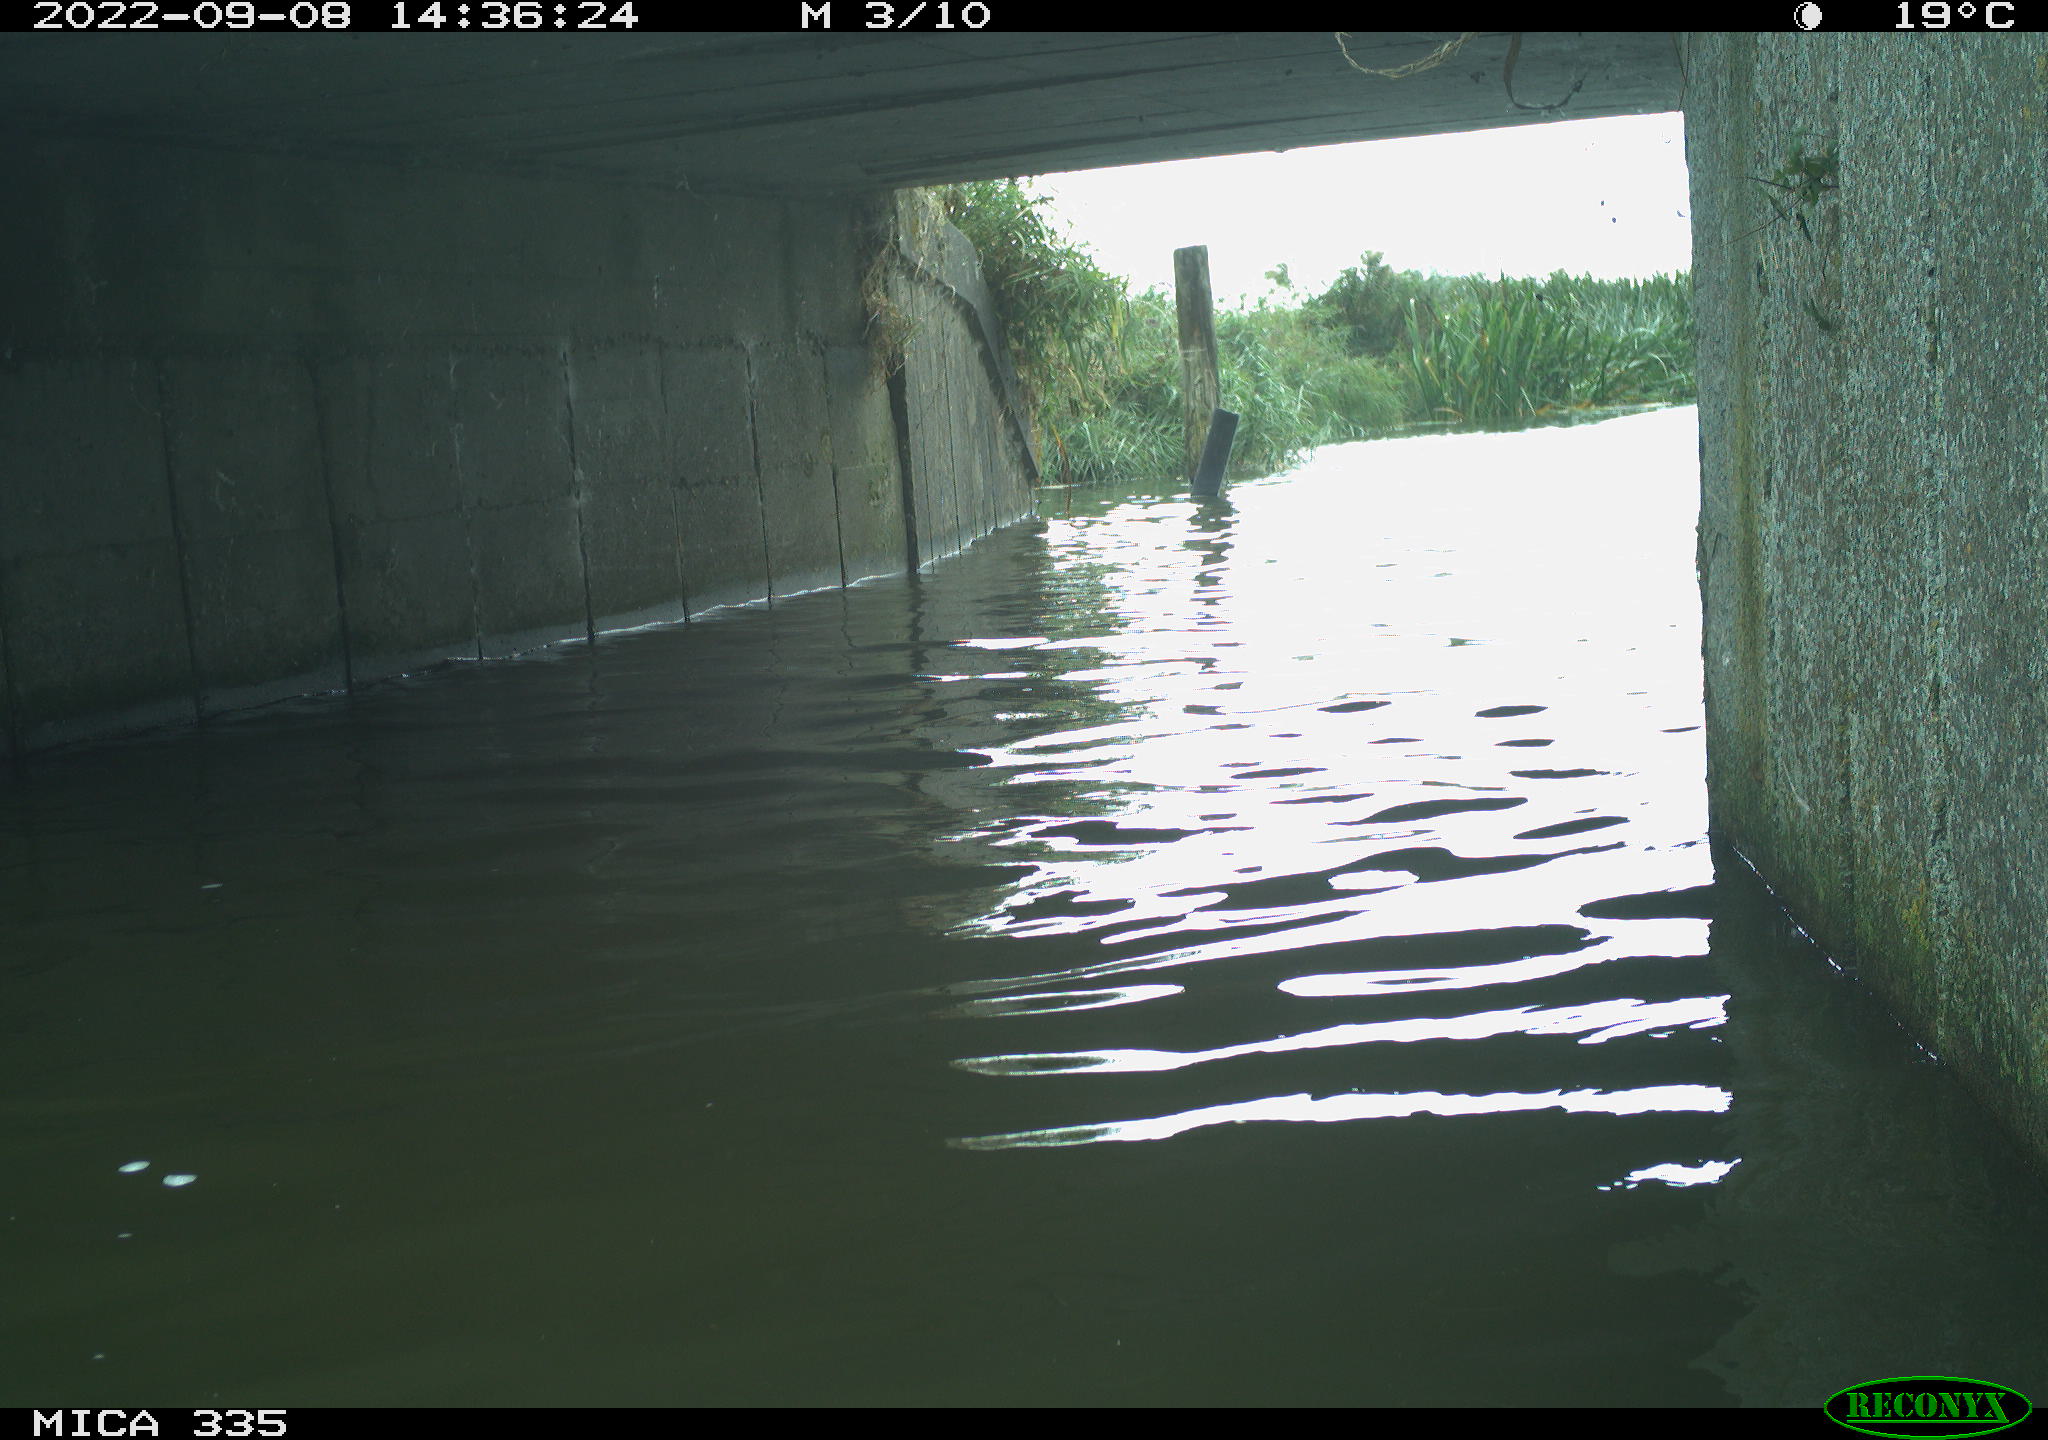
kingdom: Animalia
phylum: Chordata
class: Aves
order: Anseriformes
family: Anatidae
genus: Anas
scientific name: Anas
